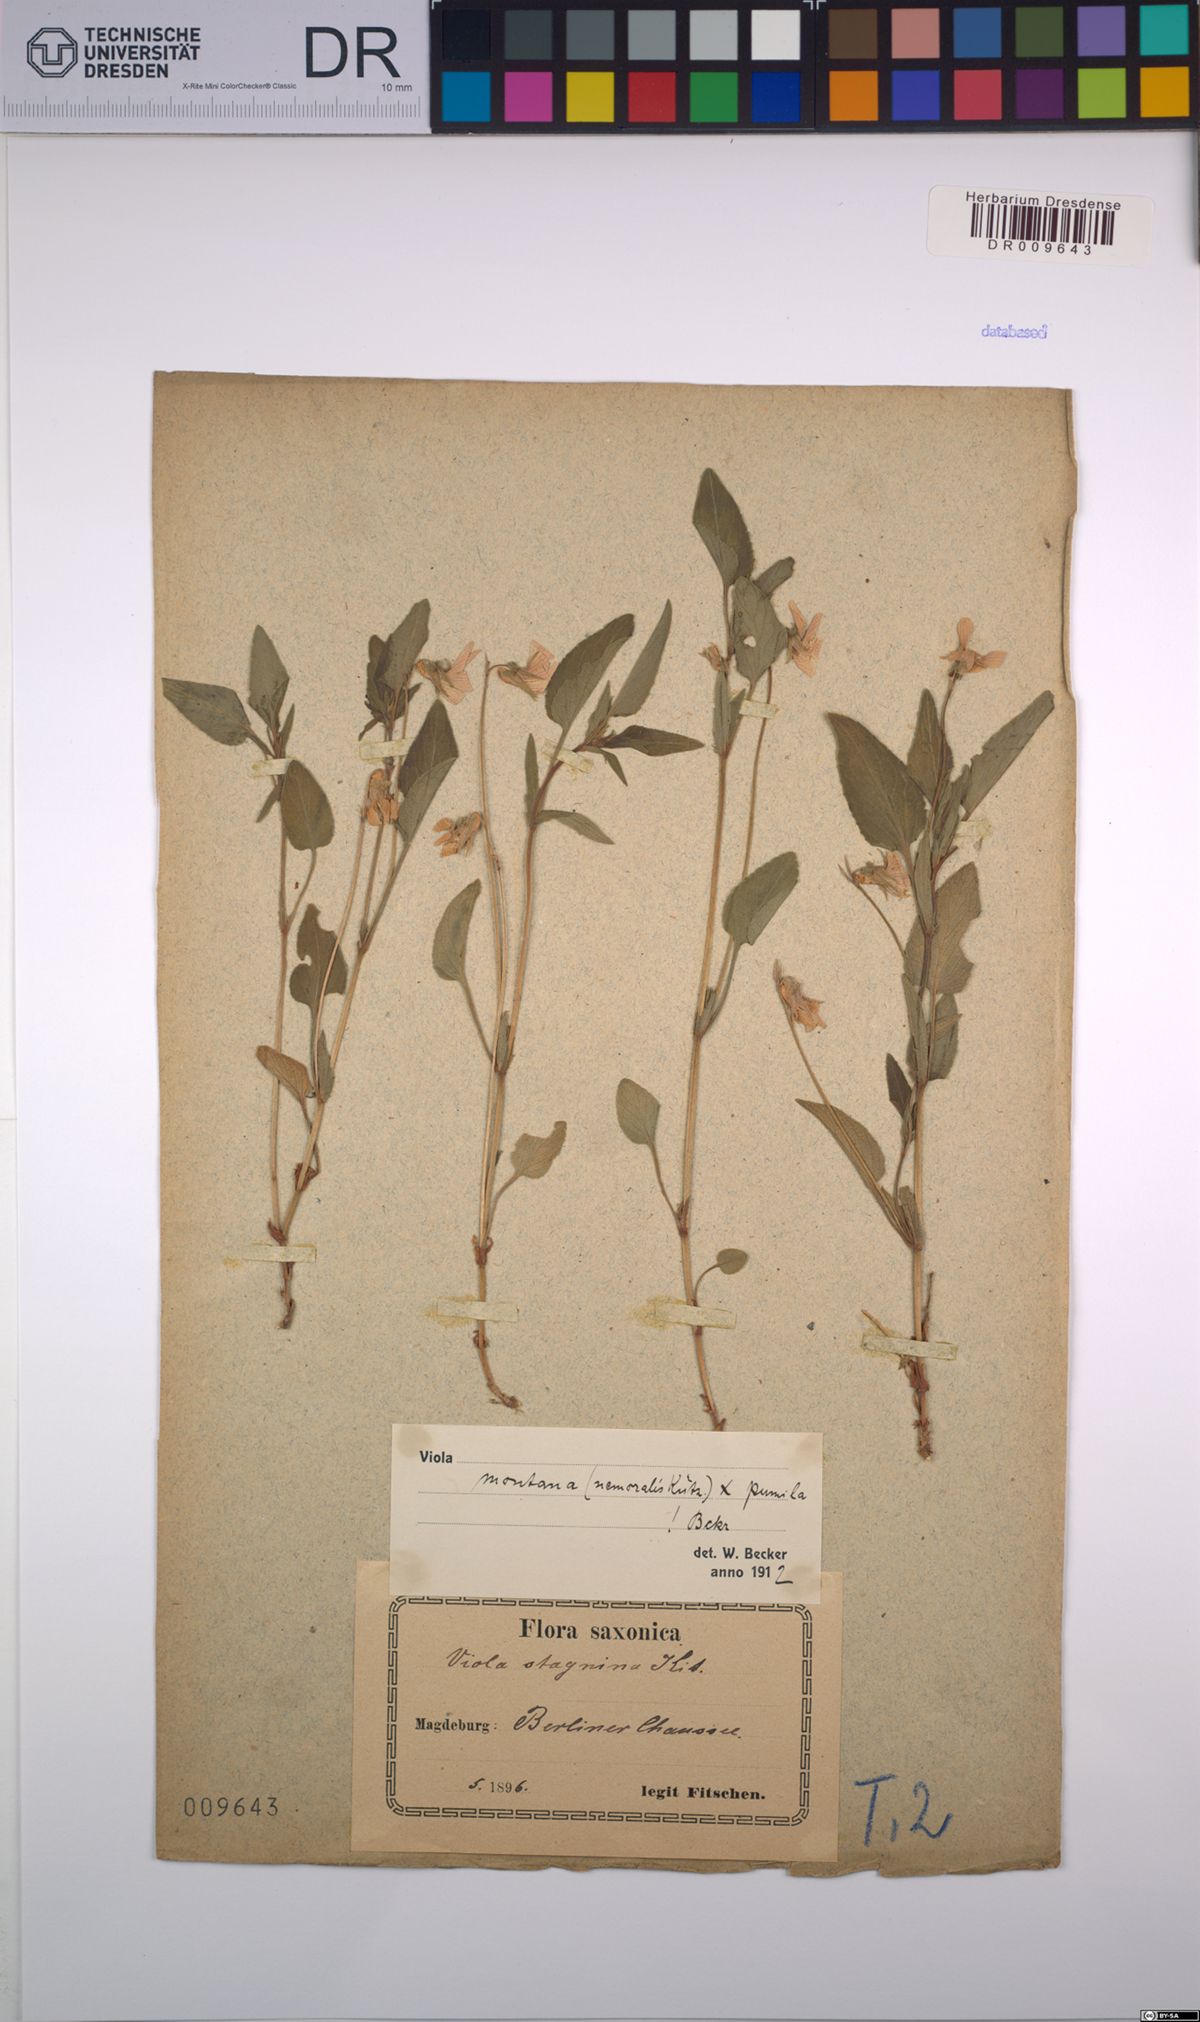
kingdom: Plantae
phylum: Tracheophyta
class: Magnoliopsida
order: Malpighiales
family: Violaceae
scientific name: Violaceae
